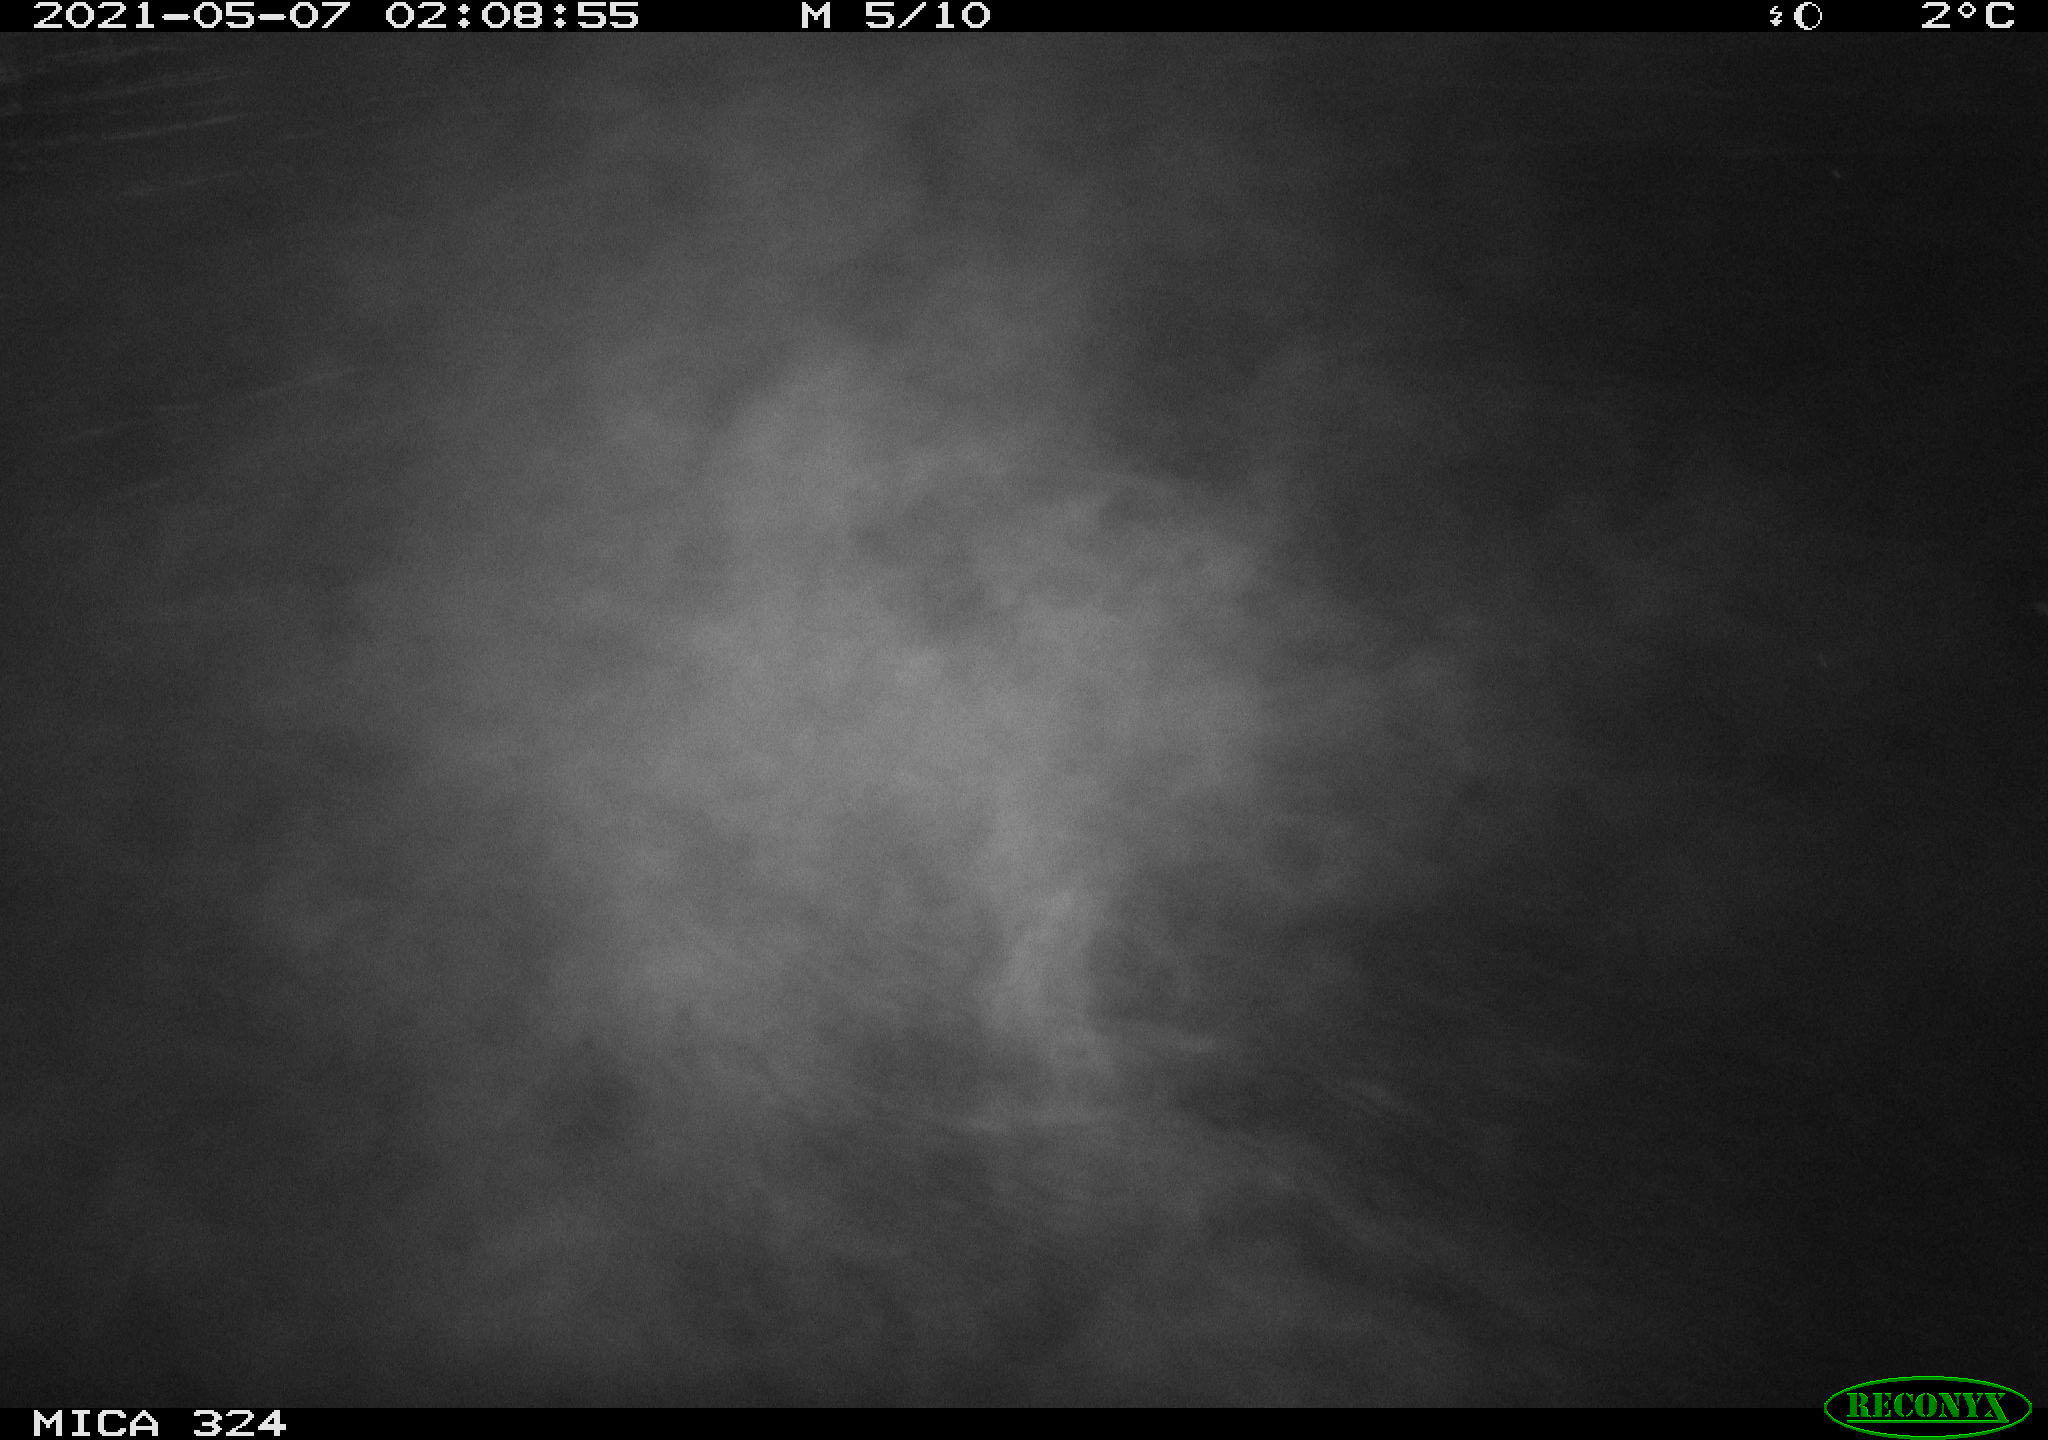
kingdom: Animalia
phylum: Chordata
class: Aves
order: Anseriformes
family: Anatidae
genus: Anas
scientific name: Anas platyrhynchos
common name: Mallard
